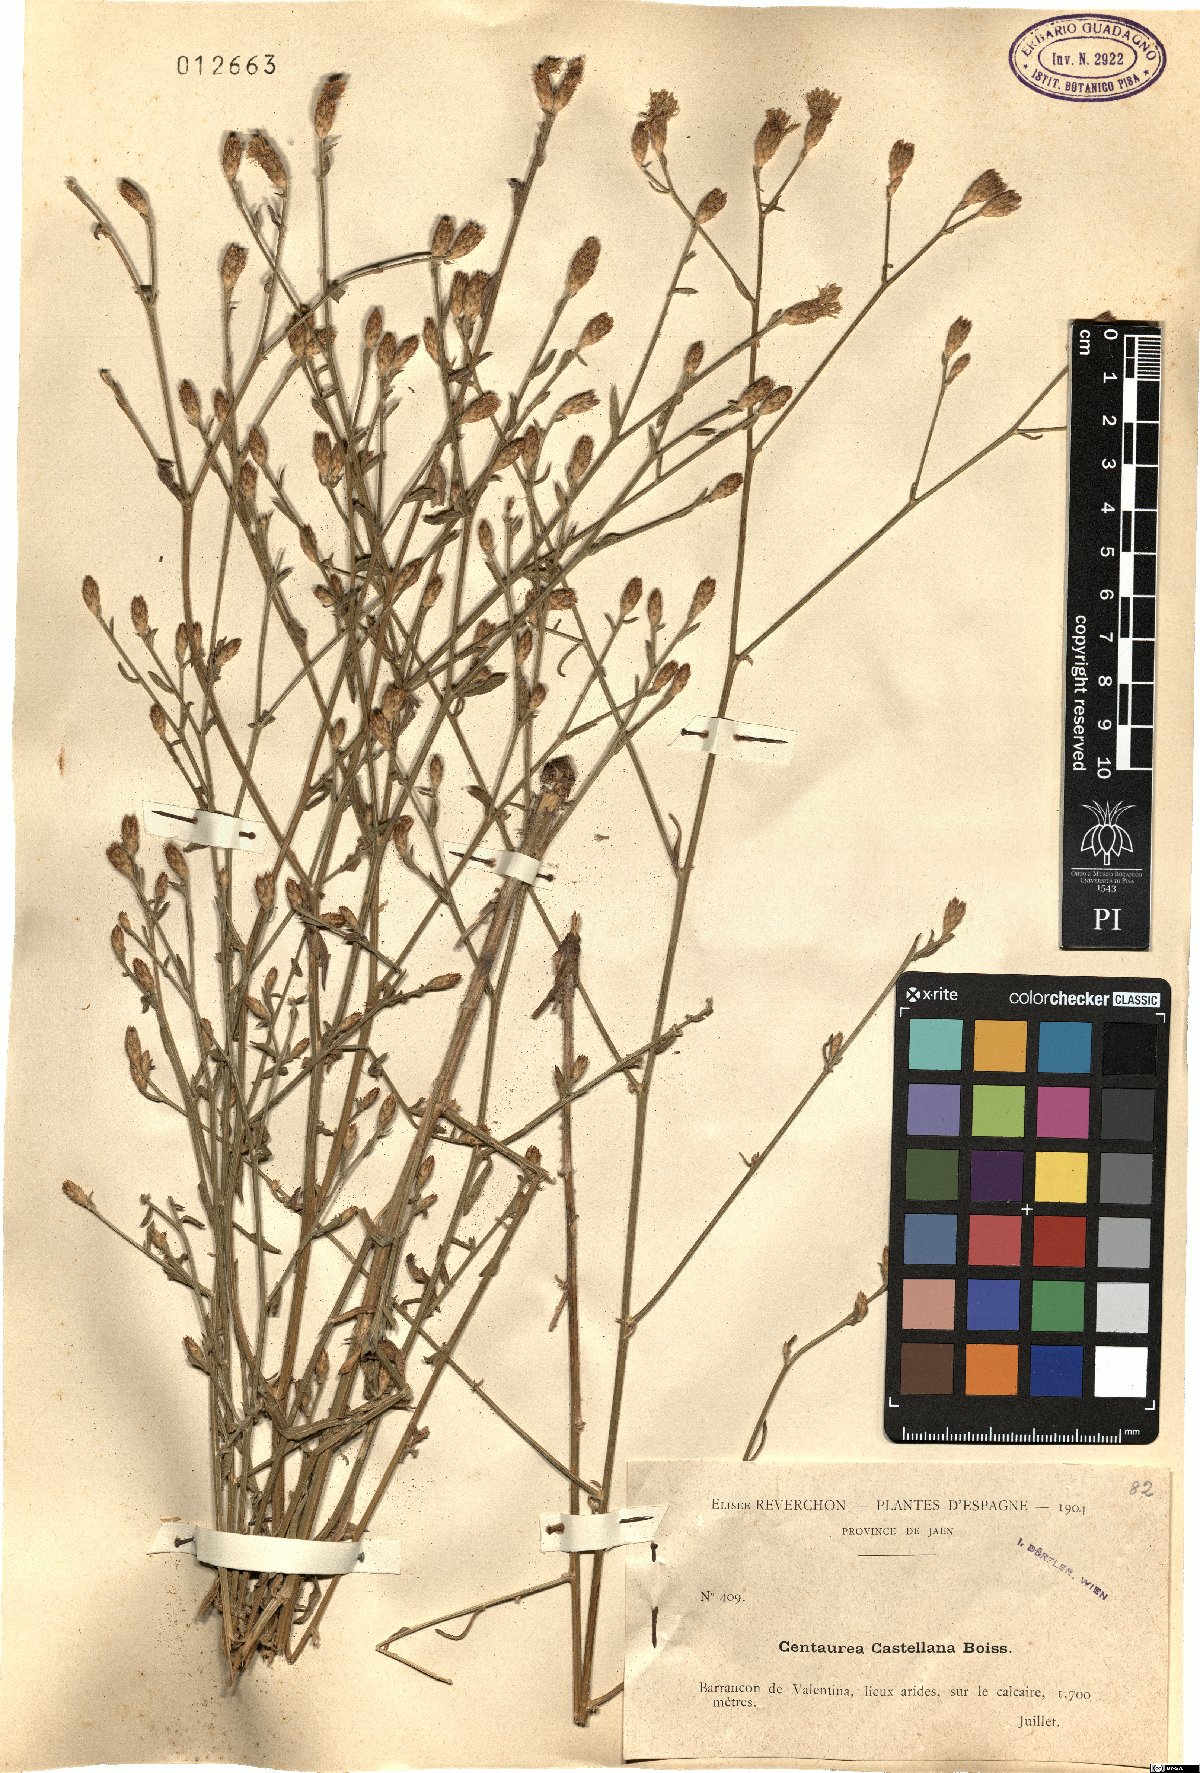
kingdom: Plantae
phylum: Tracheophyta
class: Magnoliopsida
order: Asterales
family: Asteraceae
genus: Centaurea
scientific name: Centaurea aristata
